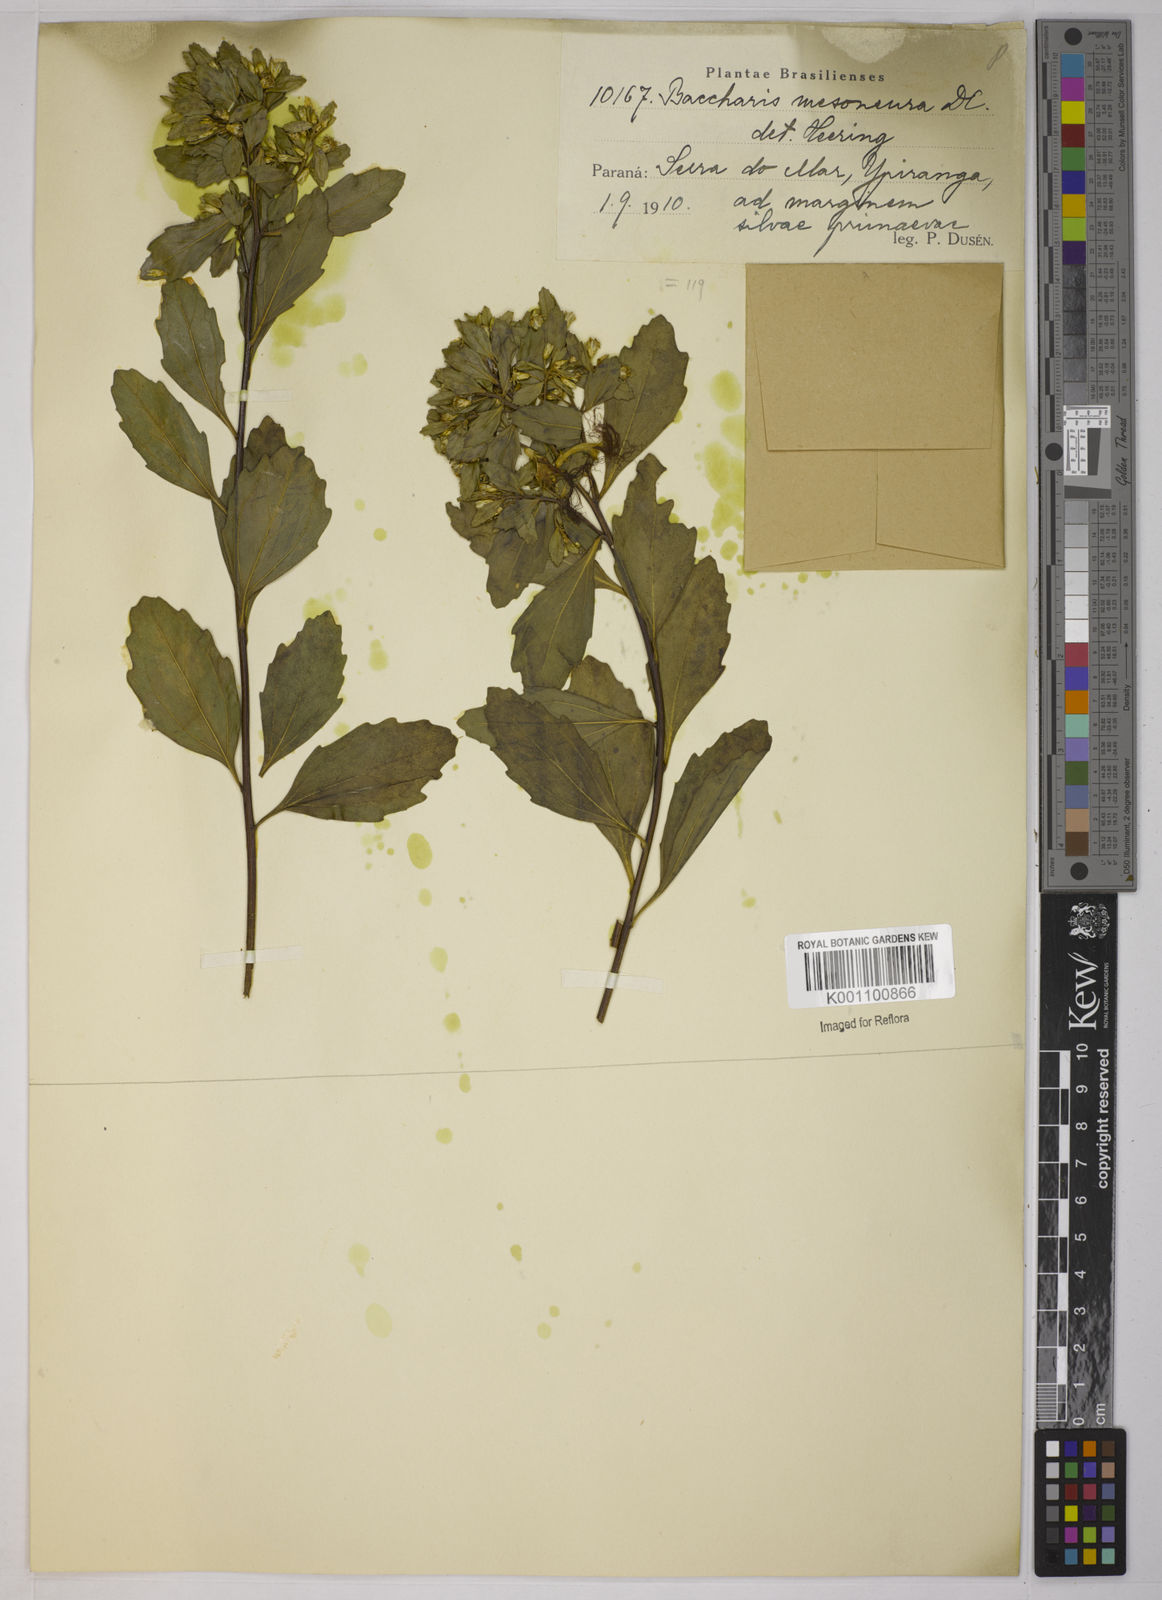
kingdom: Plantae
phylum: Tracheophyta
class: Magnoliopsida
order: Asterales
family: Asteraceae
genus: Baccharis
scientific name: Baccharis retusa
